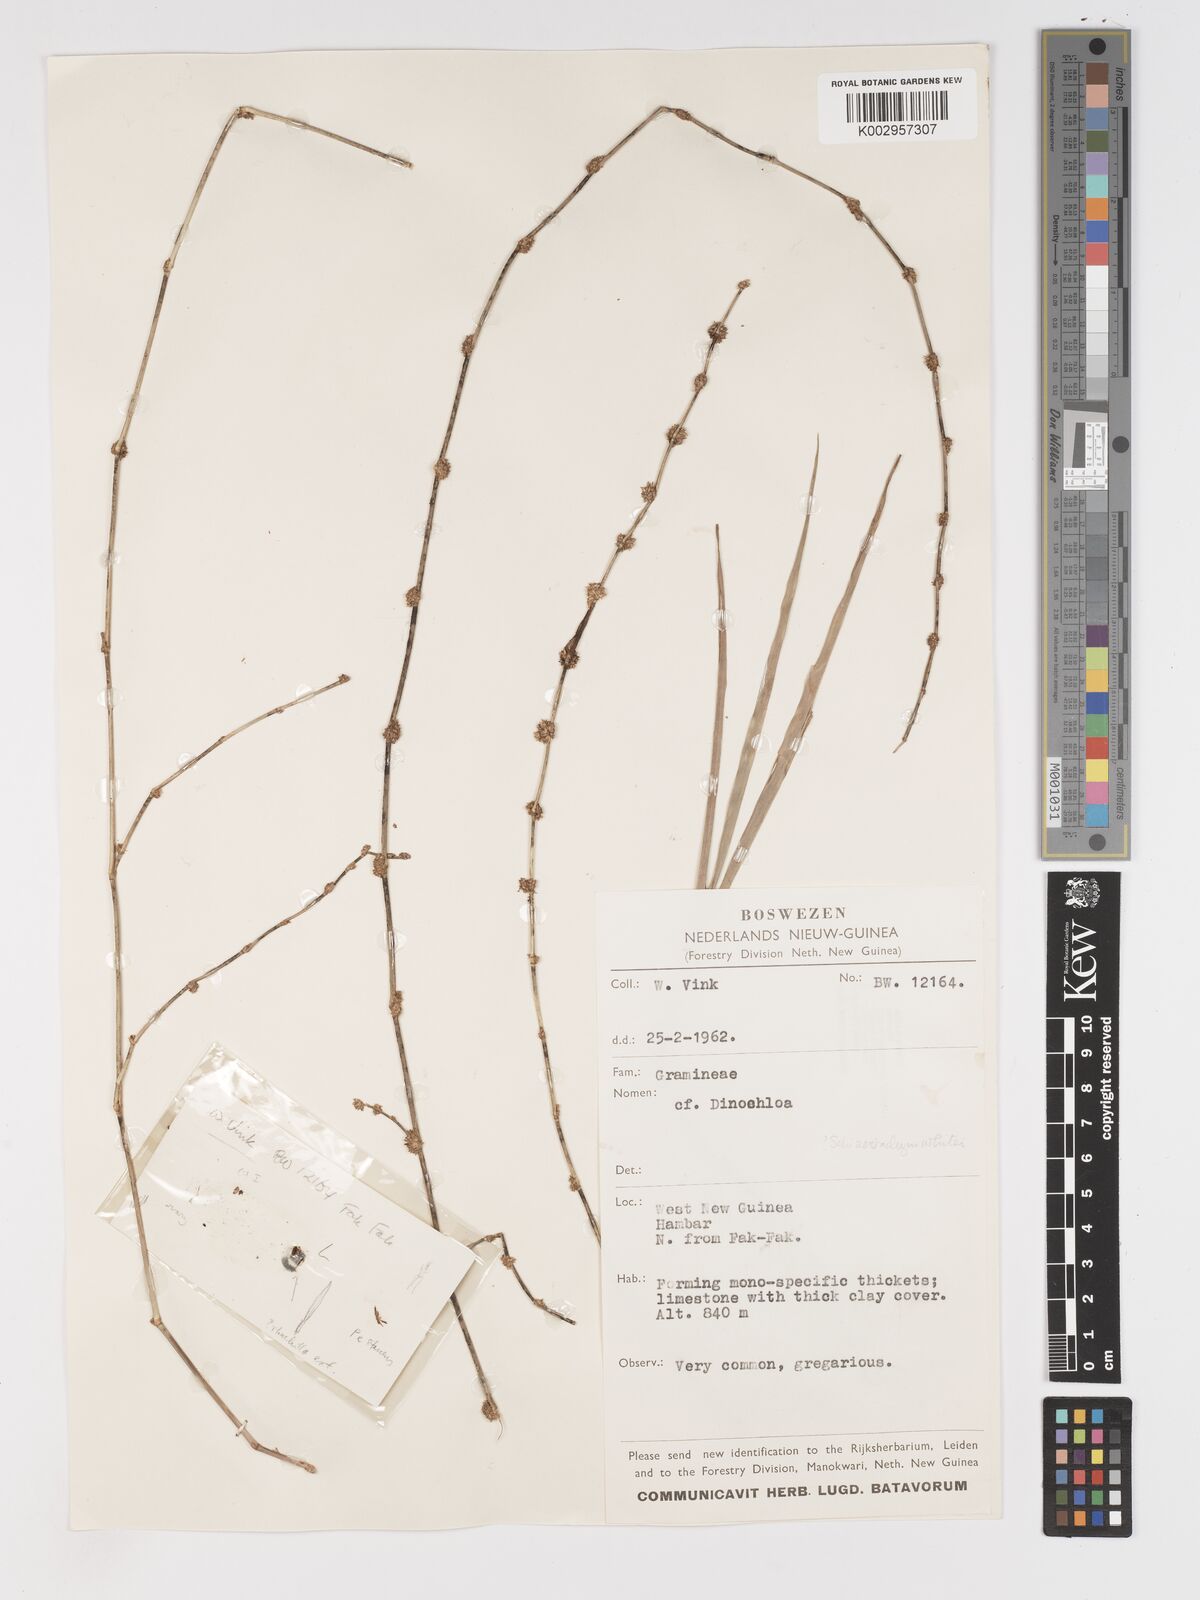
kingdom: Plantae
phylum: Tracheophyta
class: Liliopsida
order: Poales
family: Poaceae
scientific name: Poaceae
